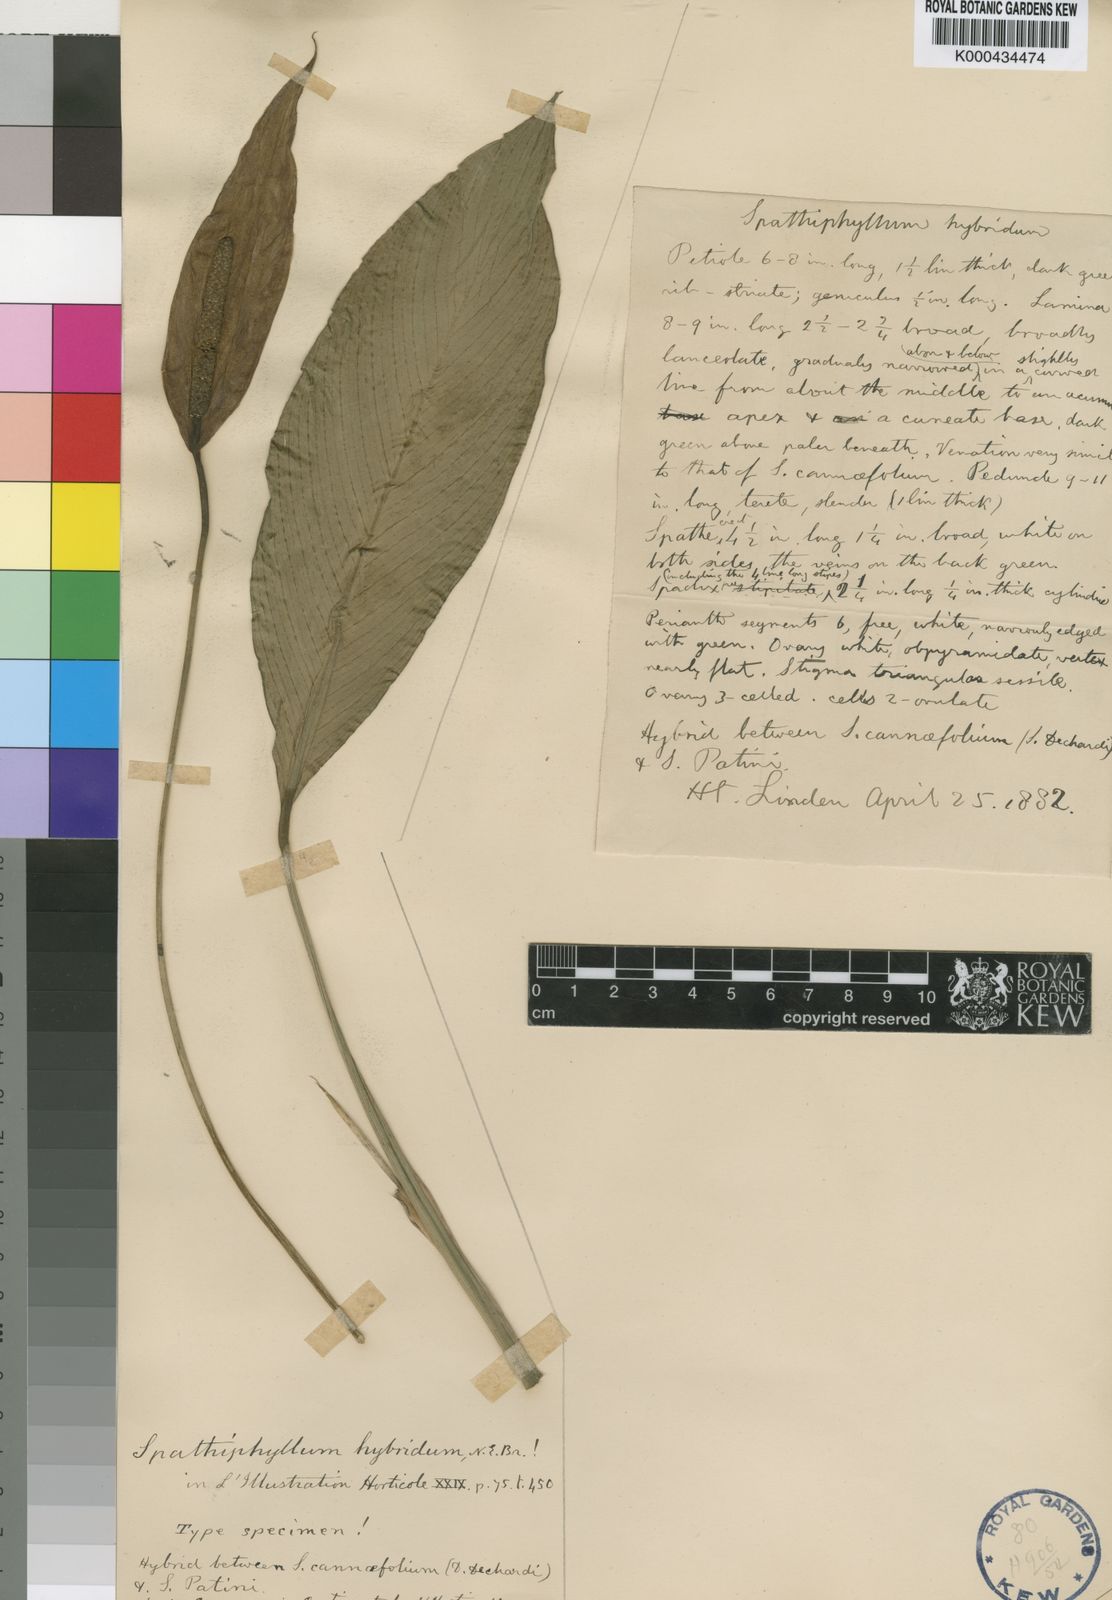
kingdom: Plantae
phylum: Tracheophyta
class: Liliopsida
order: Alismatales
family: Araceae
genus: Spathiphyllum
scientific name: Spathiphyllum hybridum
